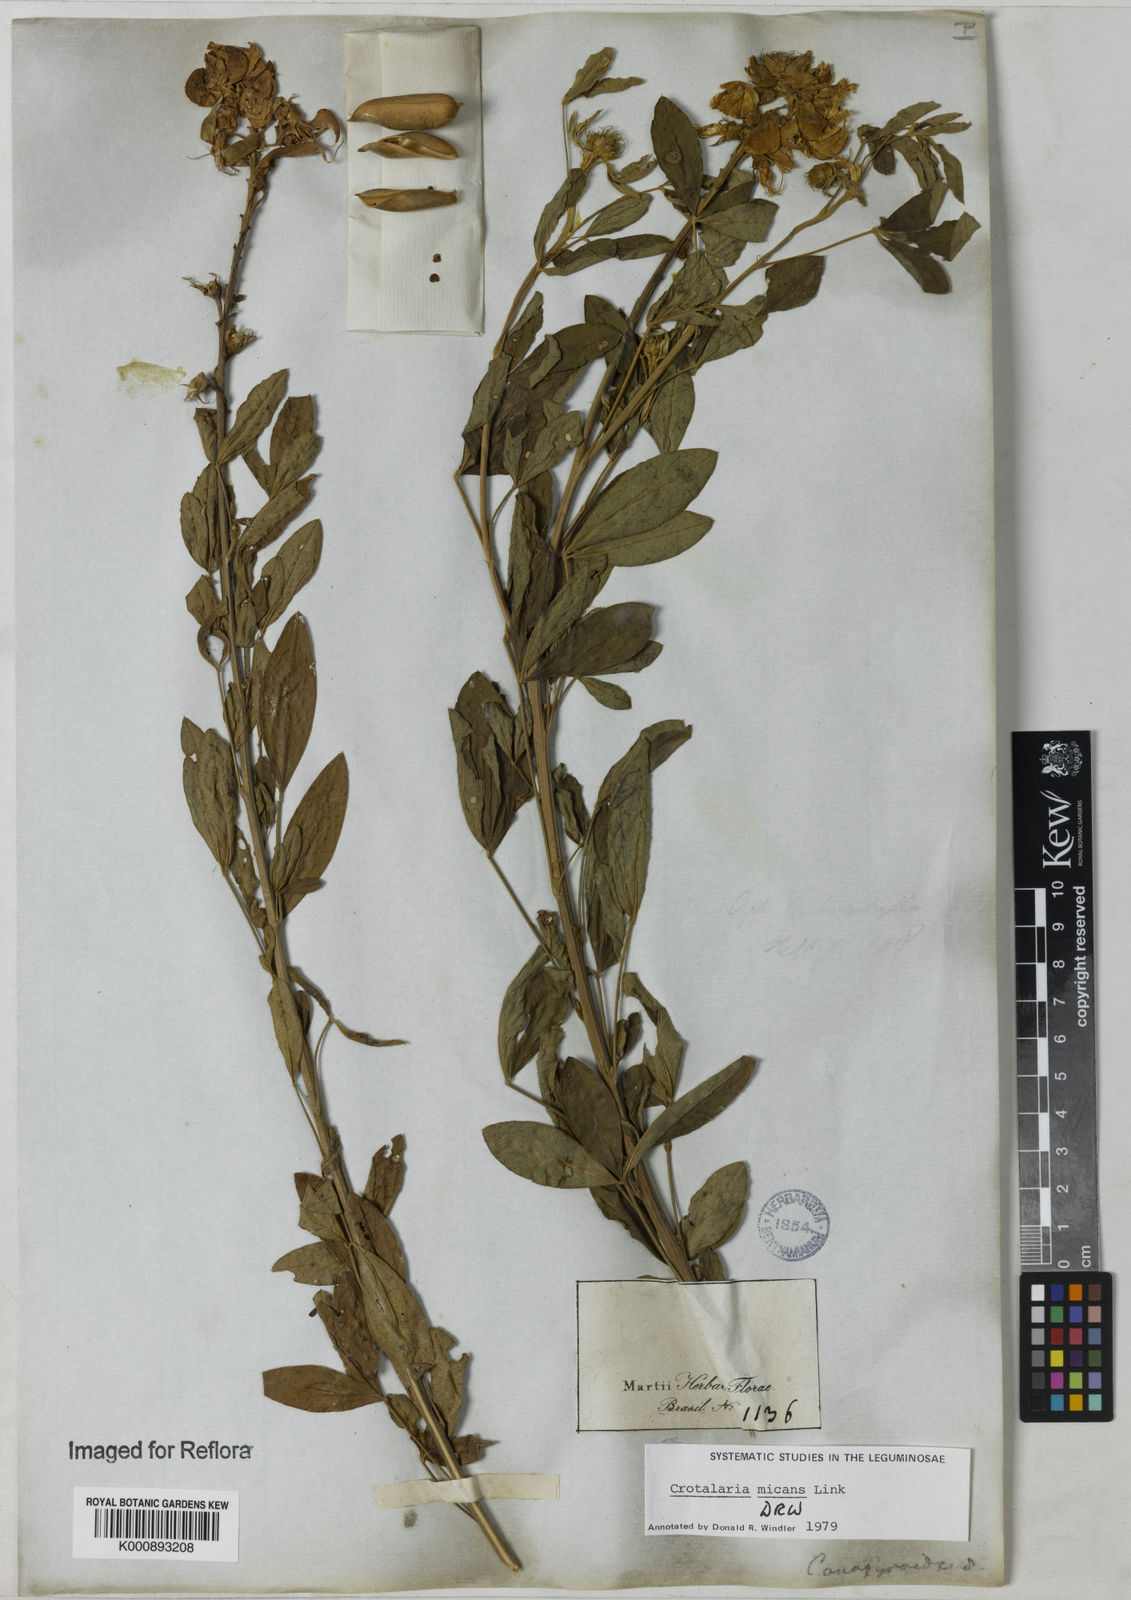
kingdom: Plantae
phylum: Tracheophyta
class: Magnoliopsida
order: Fabales
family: Fabaceae
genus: Crotalaria
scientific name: Crotalaria micans
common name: Caracas rattlebox
